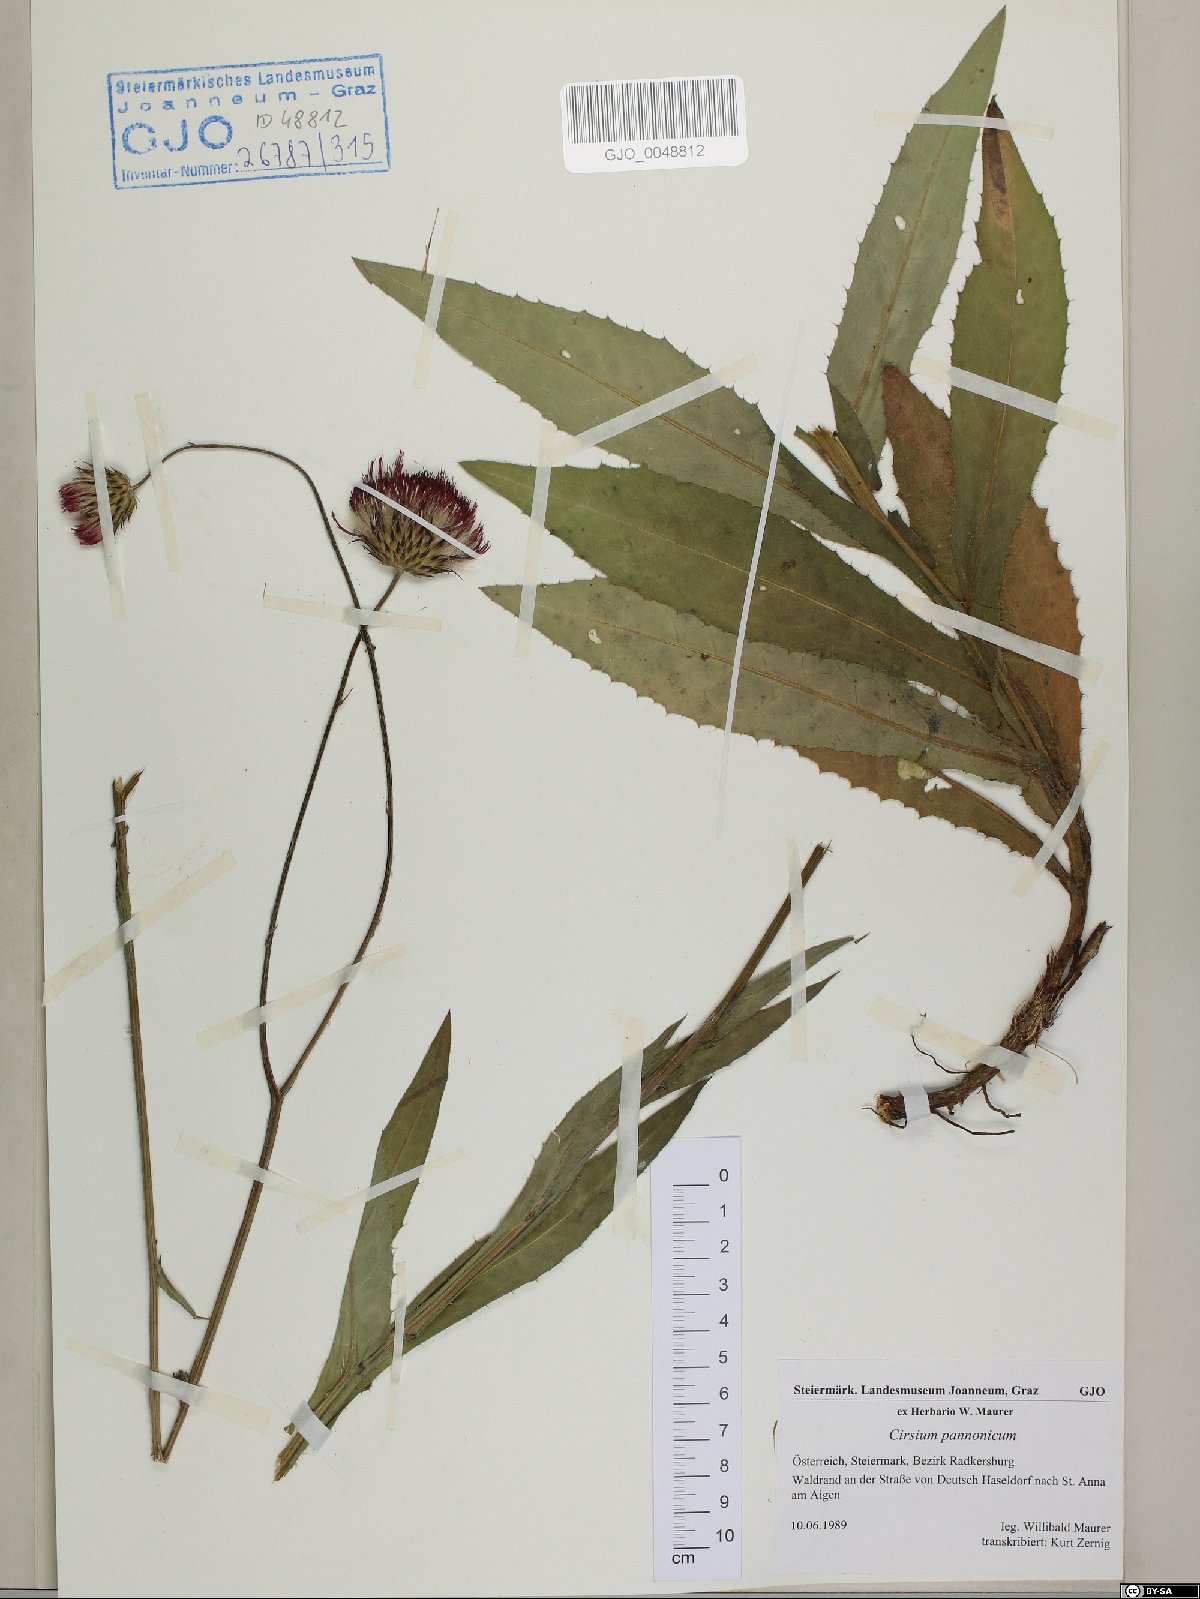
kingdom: Plantae
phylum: Tracheophyta
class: Magnoliopsida
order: Asterales
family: Asteraceae
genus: Cirsium
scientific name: Cirsium pannonicum
